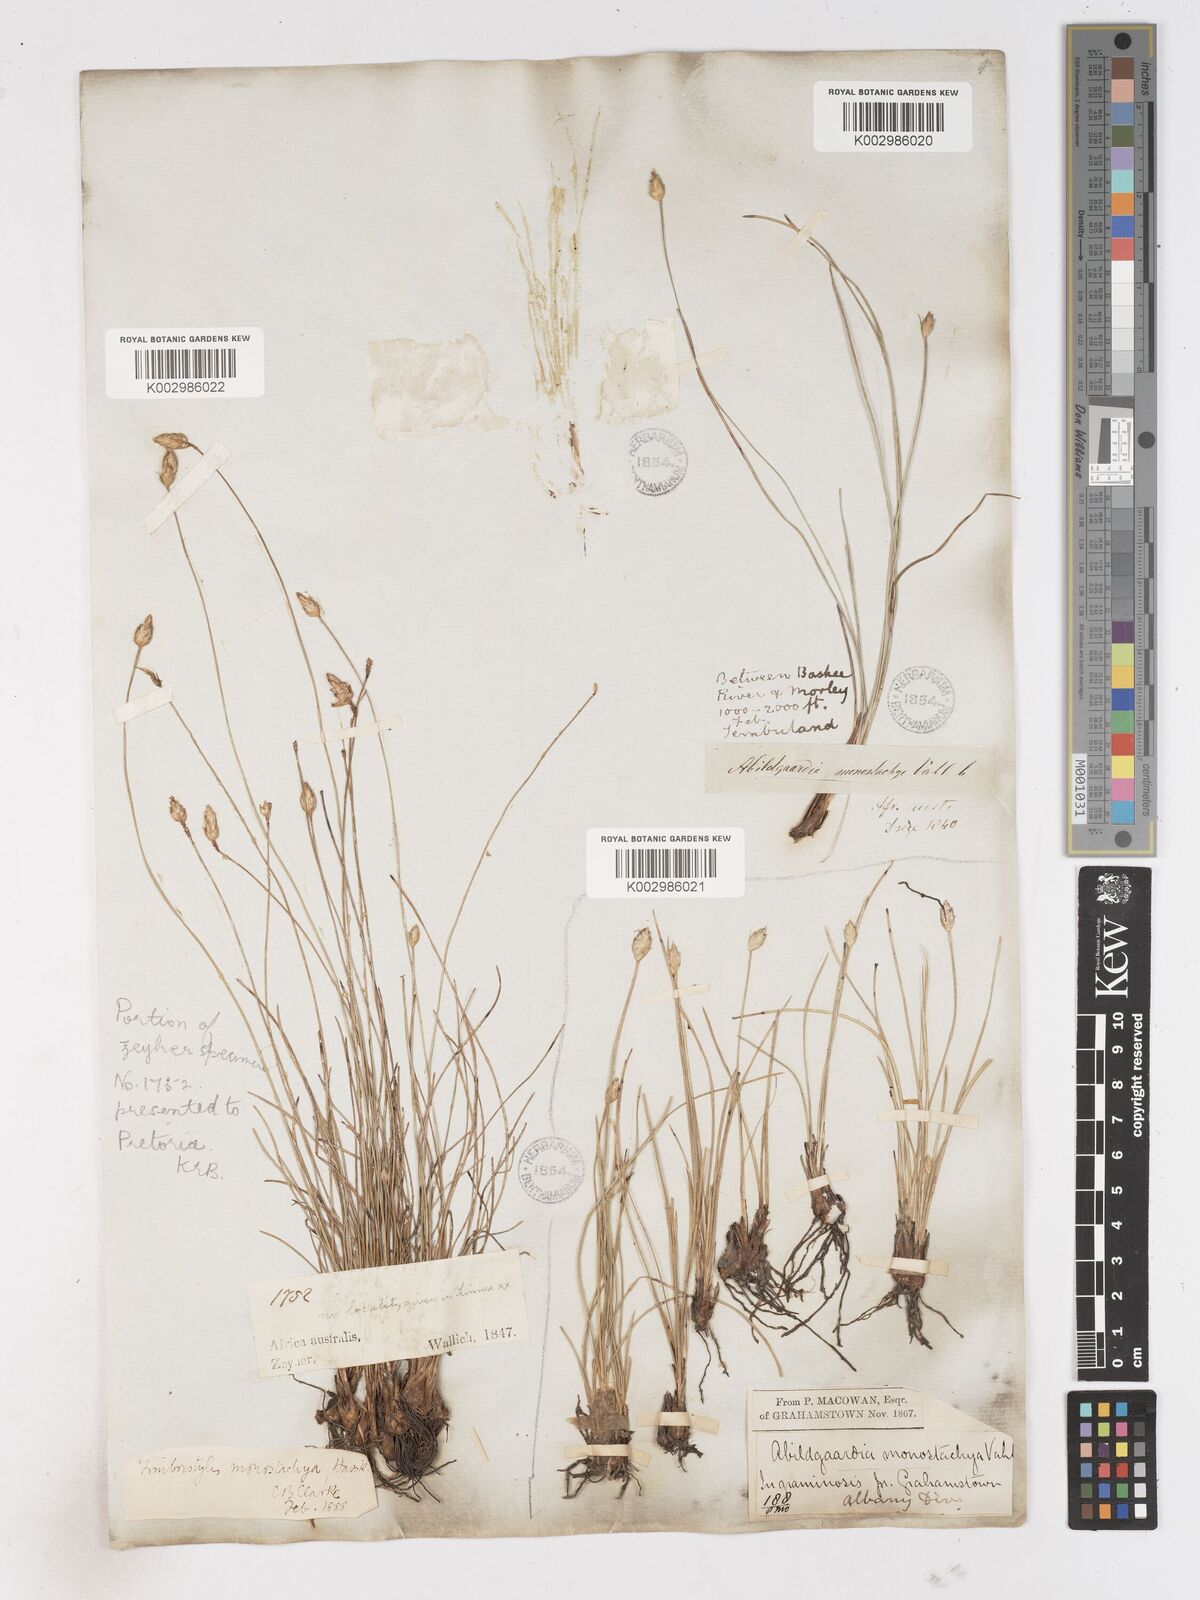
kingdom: Plantae
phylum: Tracheophyta
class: Liliopsida
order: Poales
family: Cyperaceae
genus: Abildgaardia
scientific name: Abildgaardia ovata
